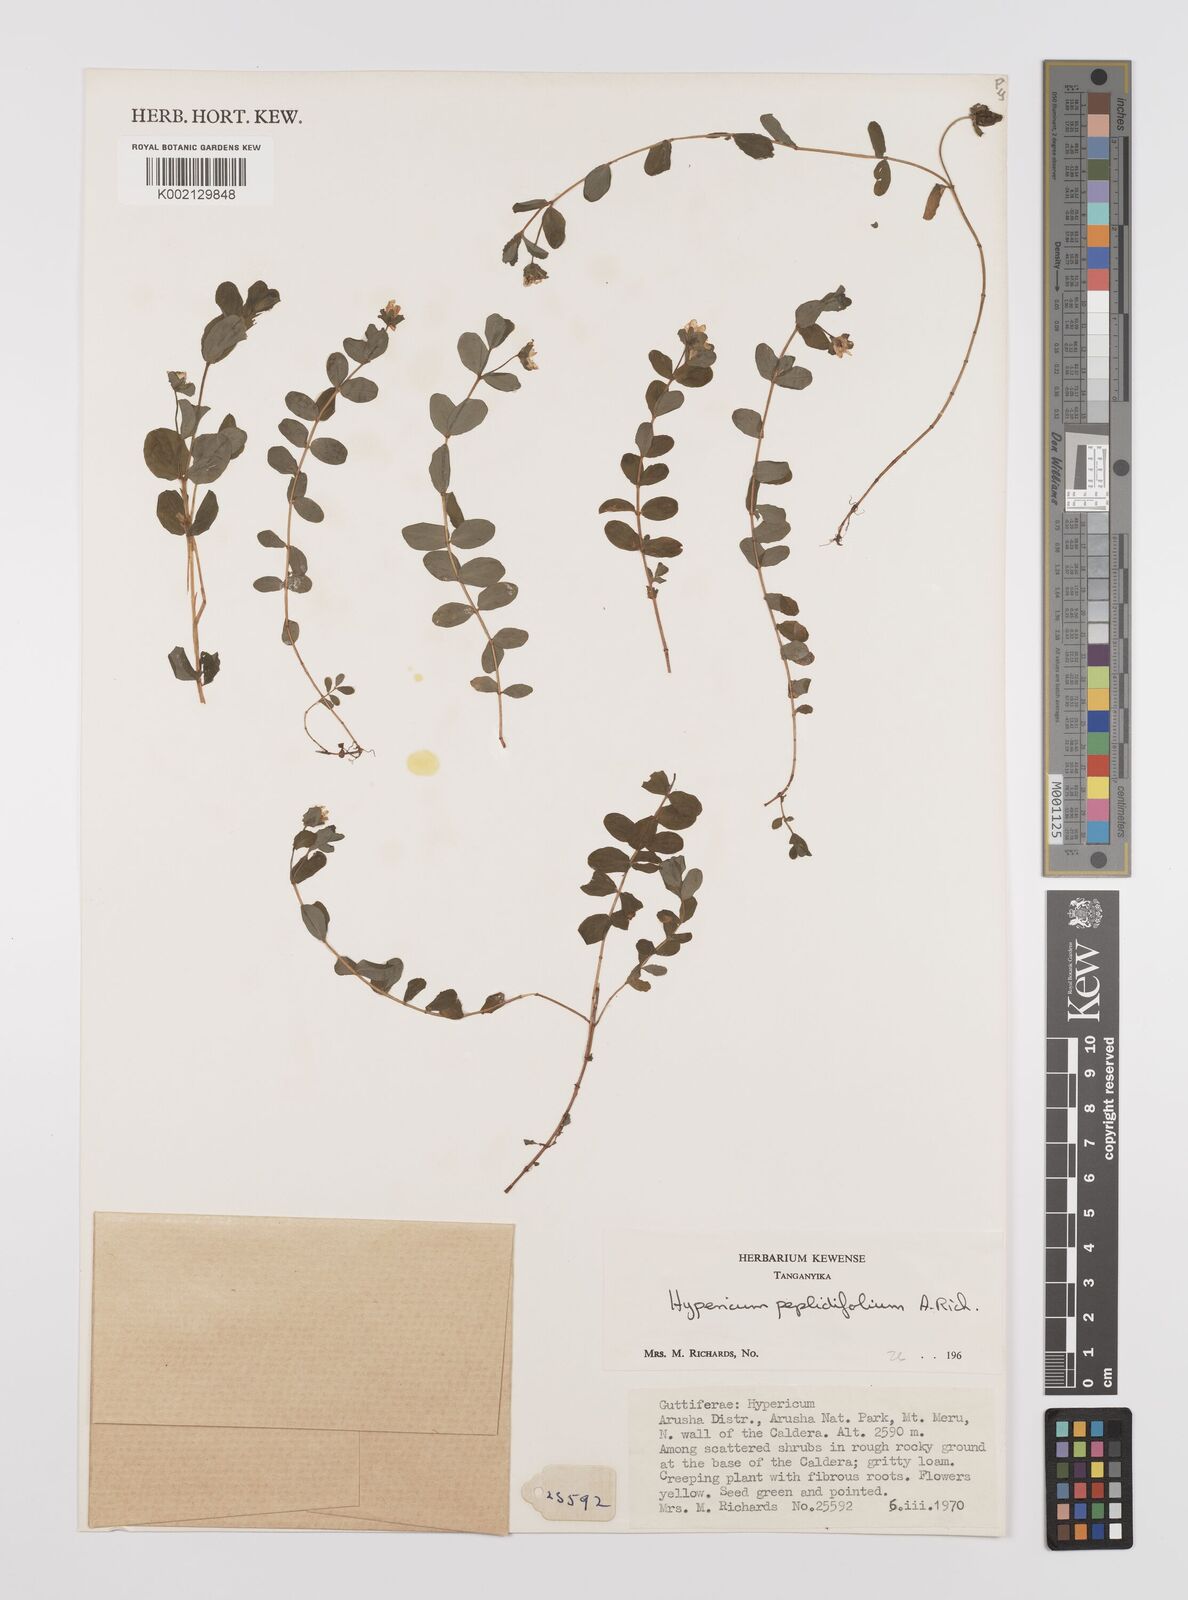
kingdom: Plantae
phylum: Tracheophyta
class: Magnoliopsida
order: Malpighiales
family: Hypericaceae
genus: Hypericum
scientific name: Hypericum peplidifolium
